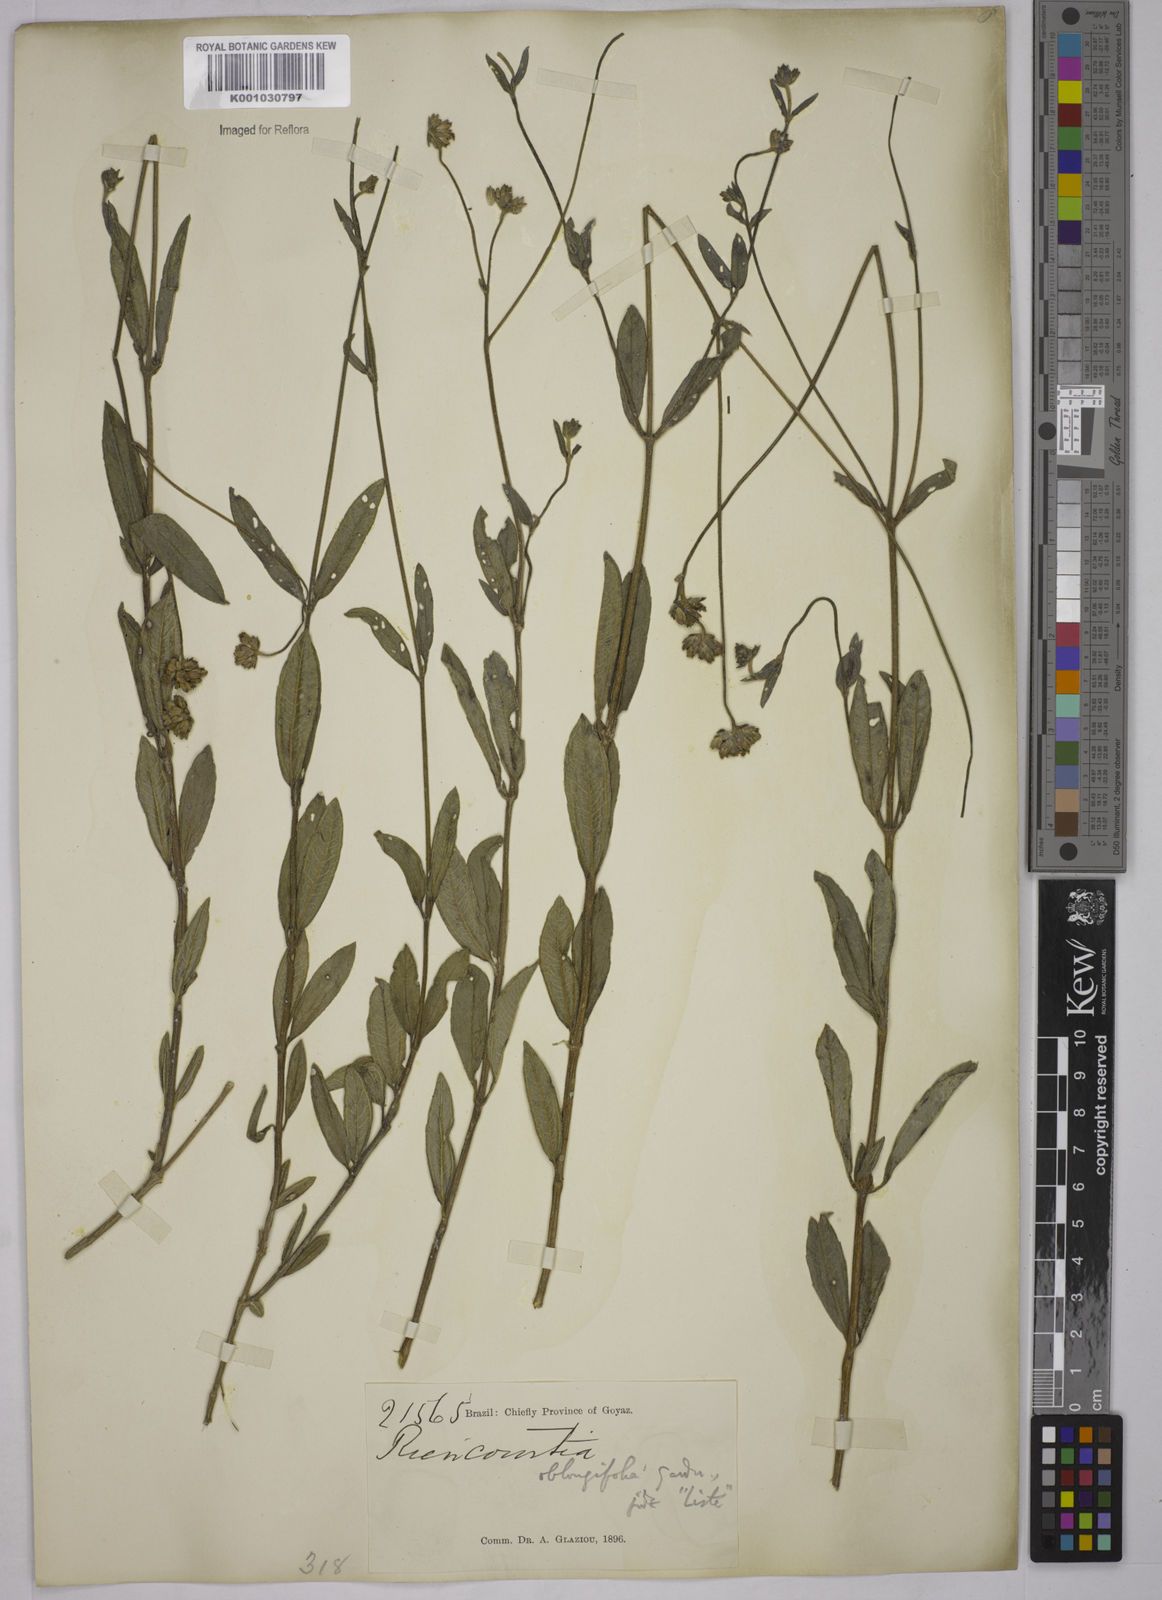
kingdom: Plantae
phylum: Tracheophyta
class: Magnoliopsida
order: Asterales
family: Asteraceae
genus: Riencourtia
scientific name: Riencourtia oblongifolia
